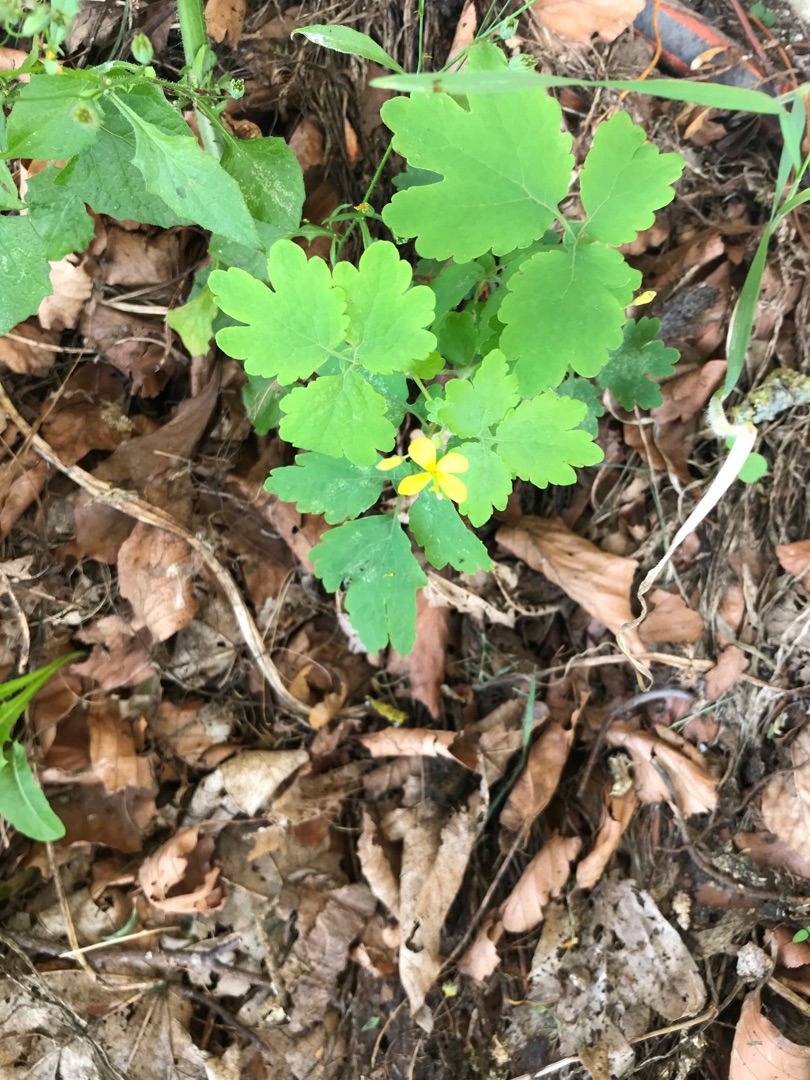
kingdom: Plantae
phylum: Tracheophyta
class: Magnoliopsida
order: Ranunculales
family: Papaveraceae
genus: Chelidonium
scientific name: Chelidonium majus
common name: Svaleurt
